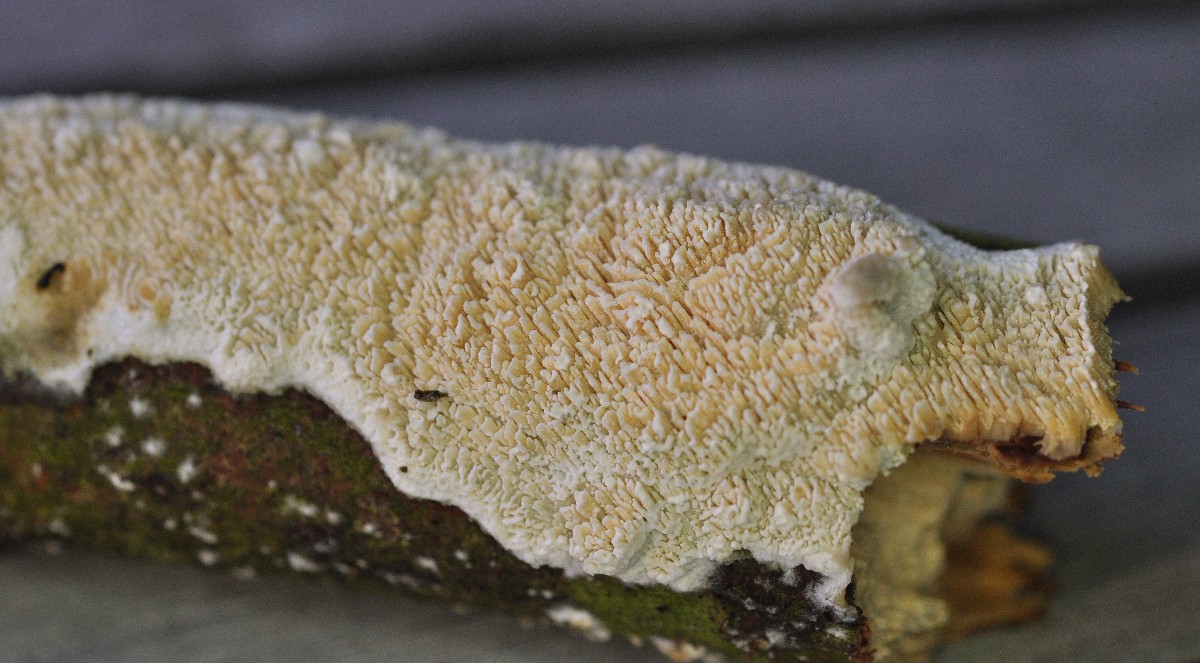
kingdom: Fungi
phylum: Basidiomycota
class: Agaricomycetes
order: Corticiales
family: Corticiaceae
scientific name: Corticiaceae
